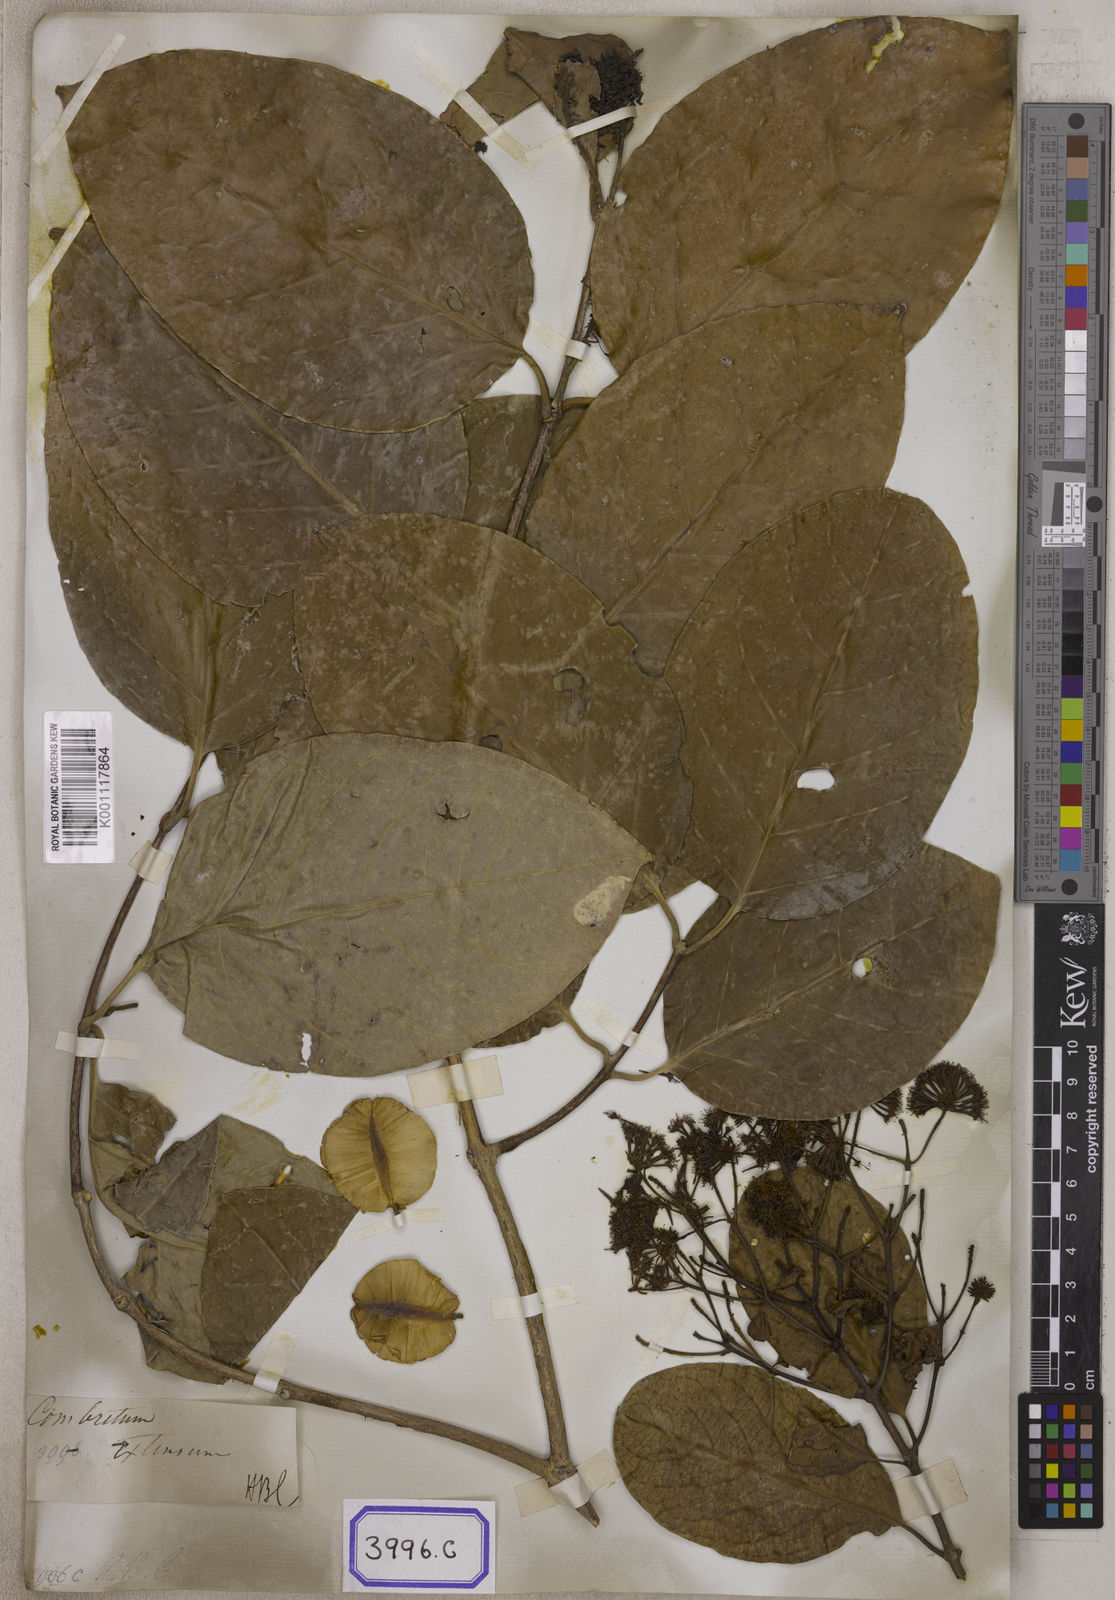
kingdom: Plantae
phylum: Tracheophyta
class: Magnoliopsida
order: Myrtales
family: Combretaceae
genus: Combretum
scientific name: Combretum
